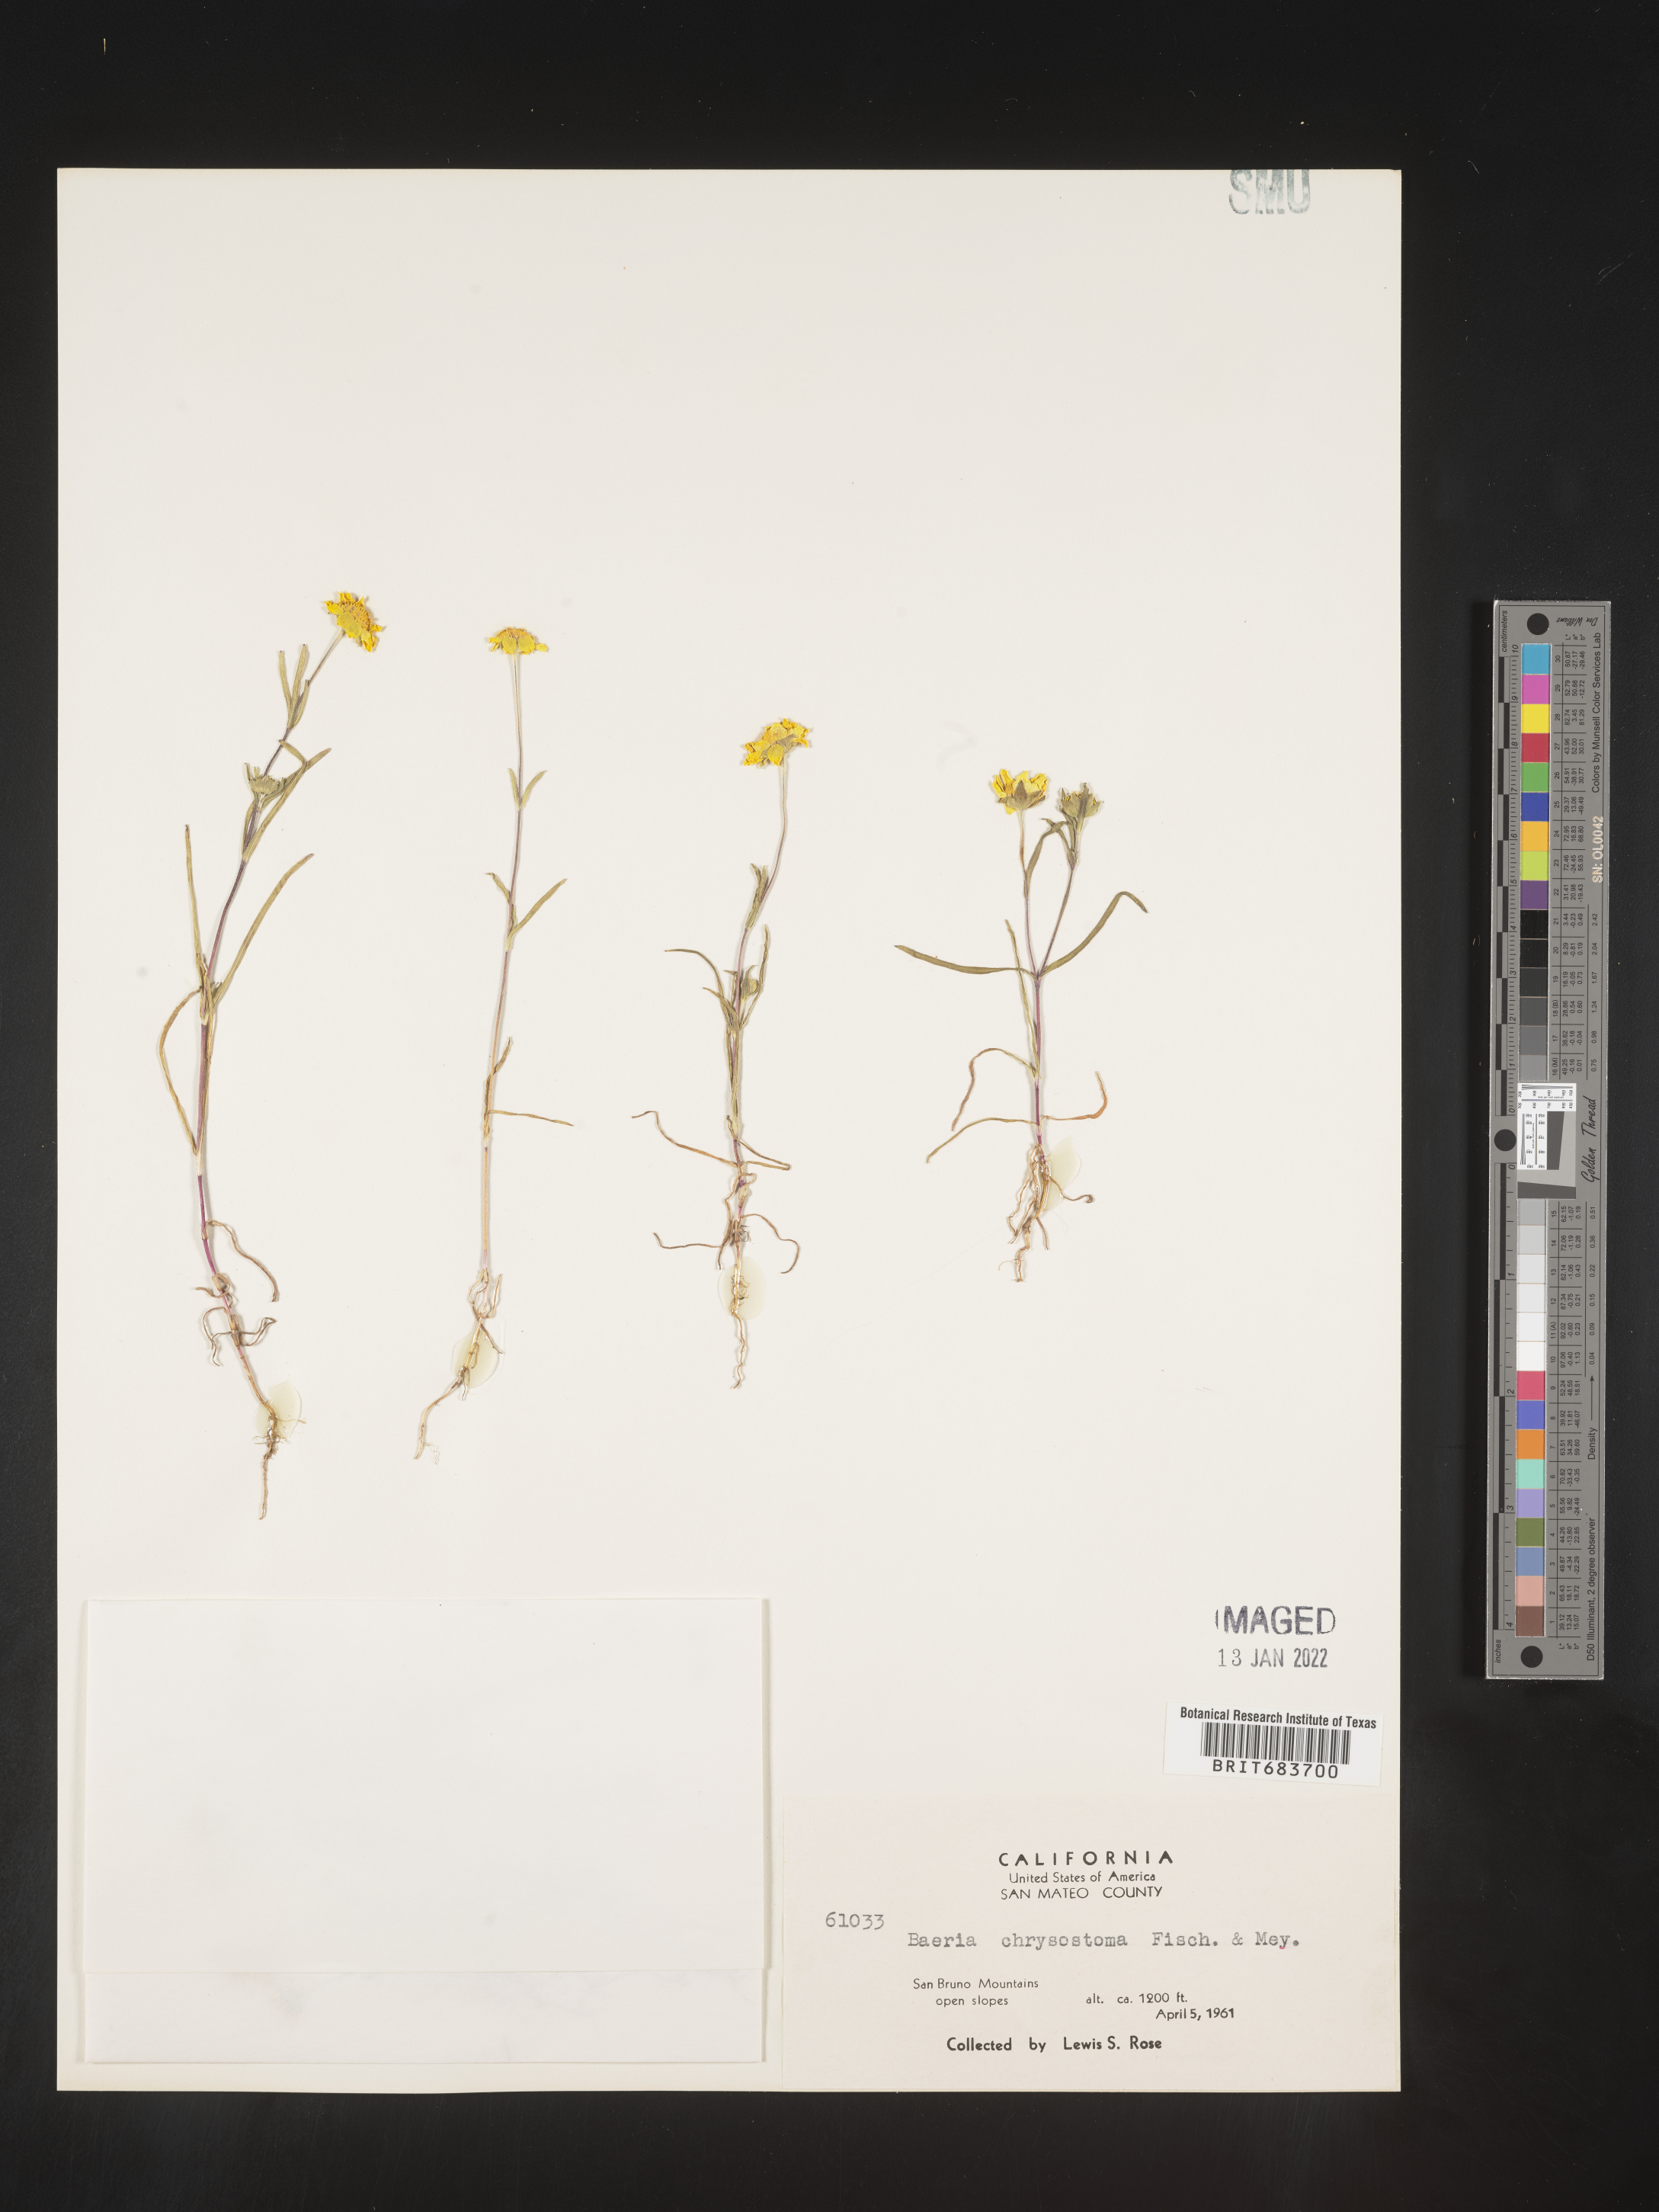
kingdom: Plantae
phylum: Tracheophyta
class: Magnoliopsida
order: Asterales
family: Asteraceae
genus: Lasthenia
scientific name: Lasthenia
